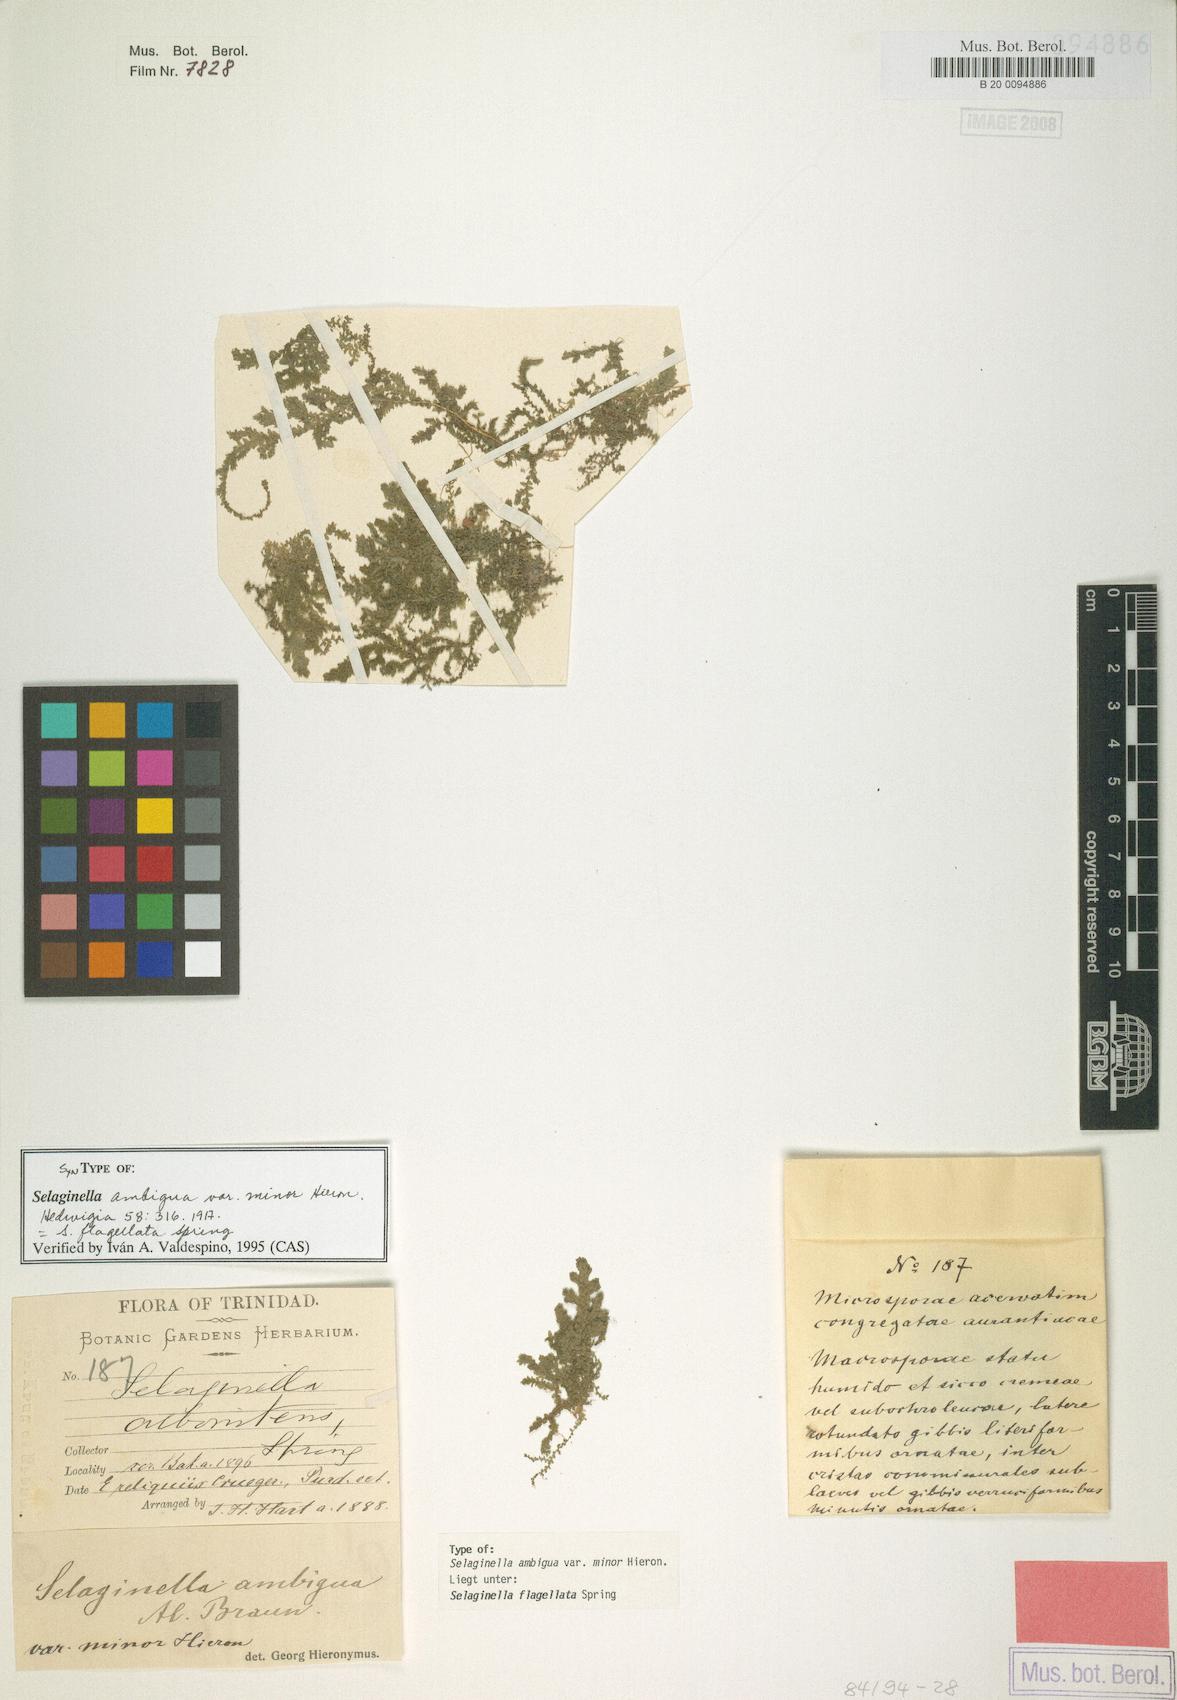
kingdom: Plantae
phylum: Tracheophyta
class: Lycopodiopsida
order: Selaginellales
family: Selaginellaceae
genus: Selaginella
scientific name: Selaginella flagellata
